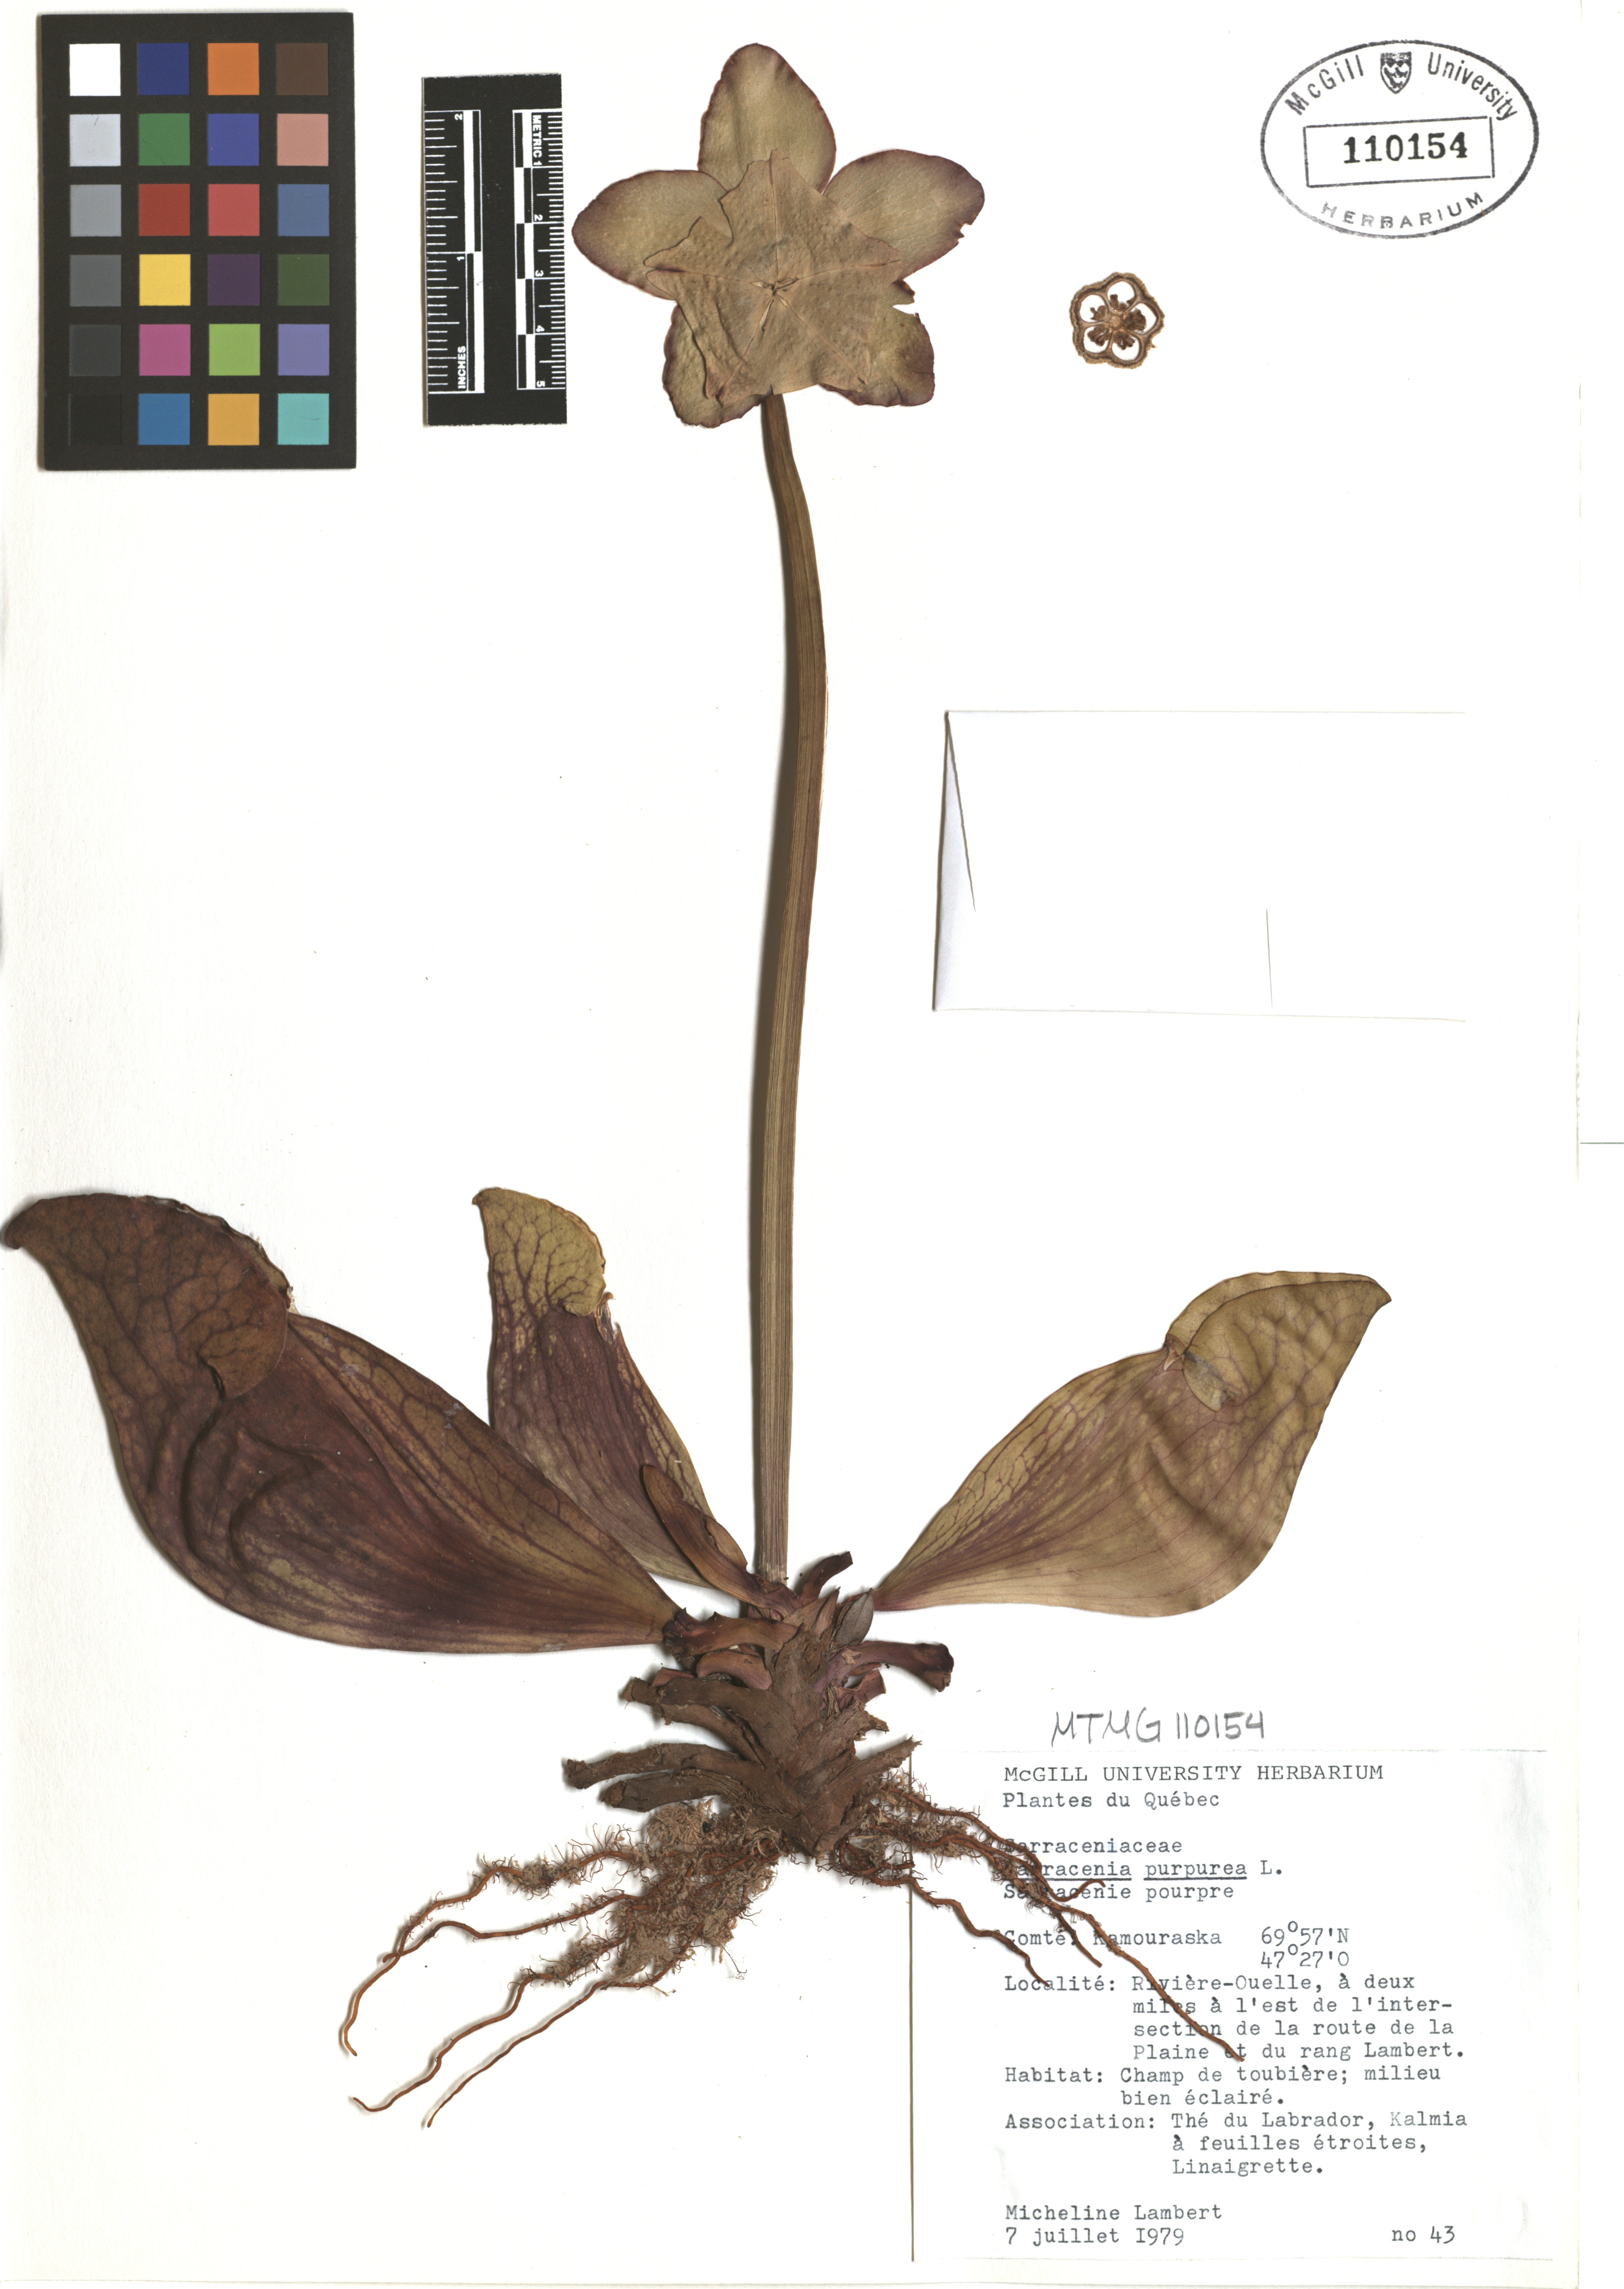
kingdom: Plantae
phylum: Tracheophyta
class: Magnoliopsida
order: Ericales
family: Sarraceniaceae
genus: Sarracenia
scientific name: Sarracenia purpurea
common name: Pitcherplant
